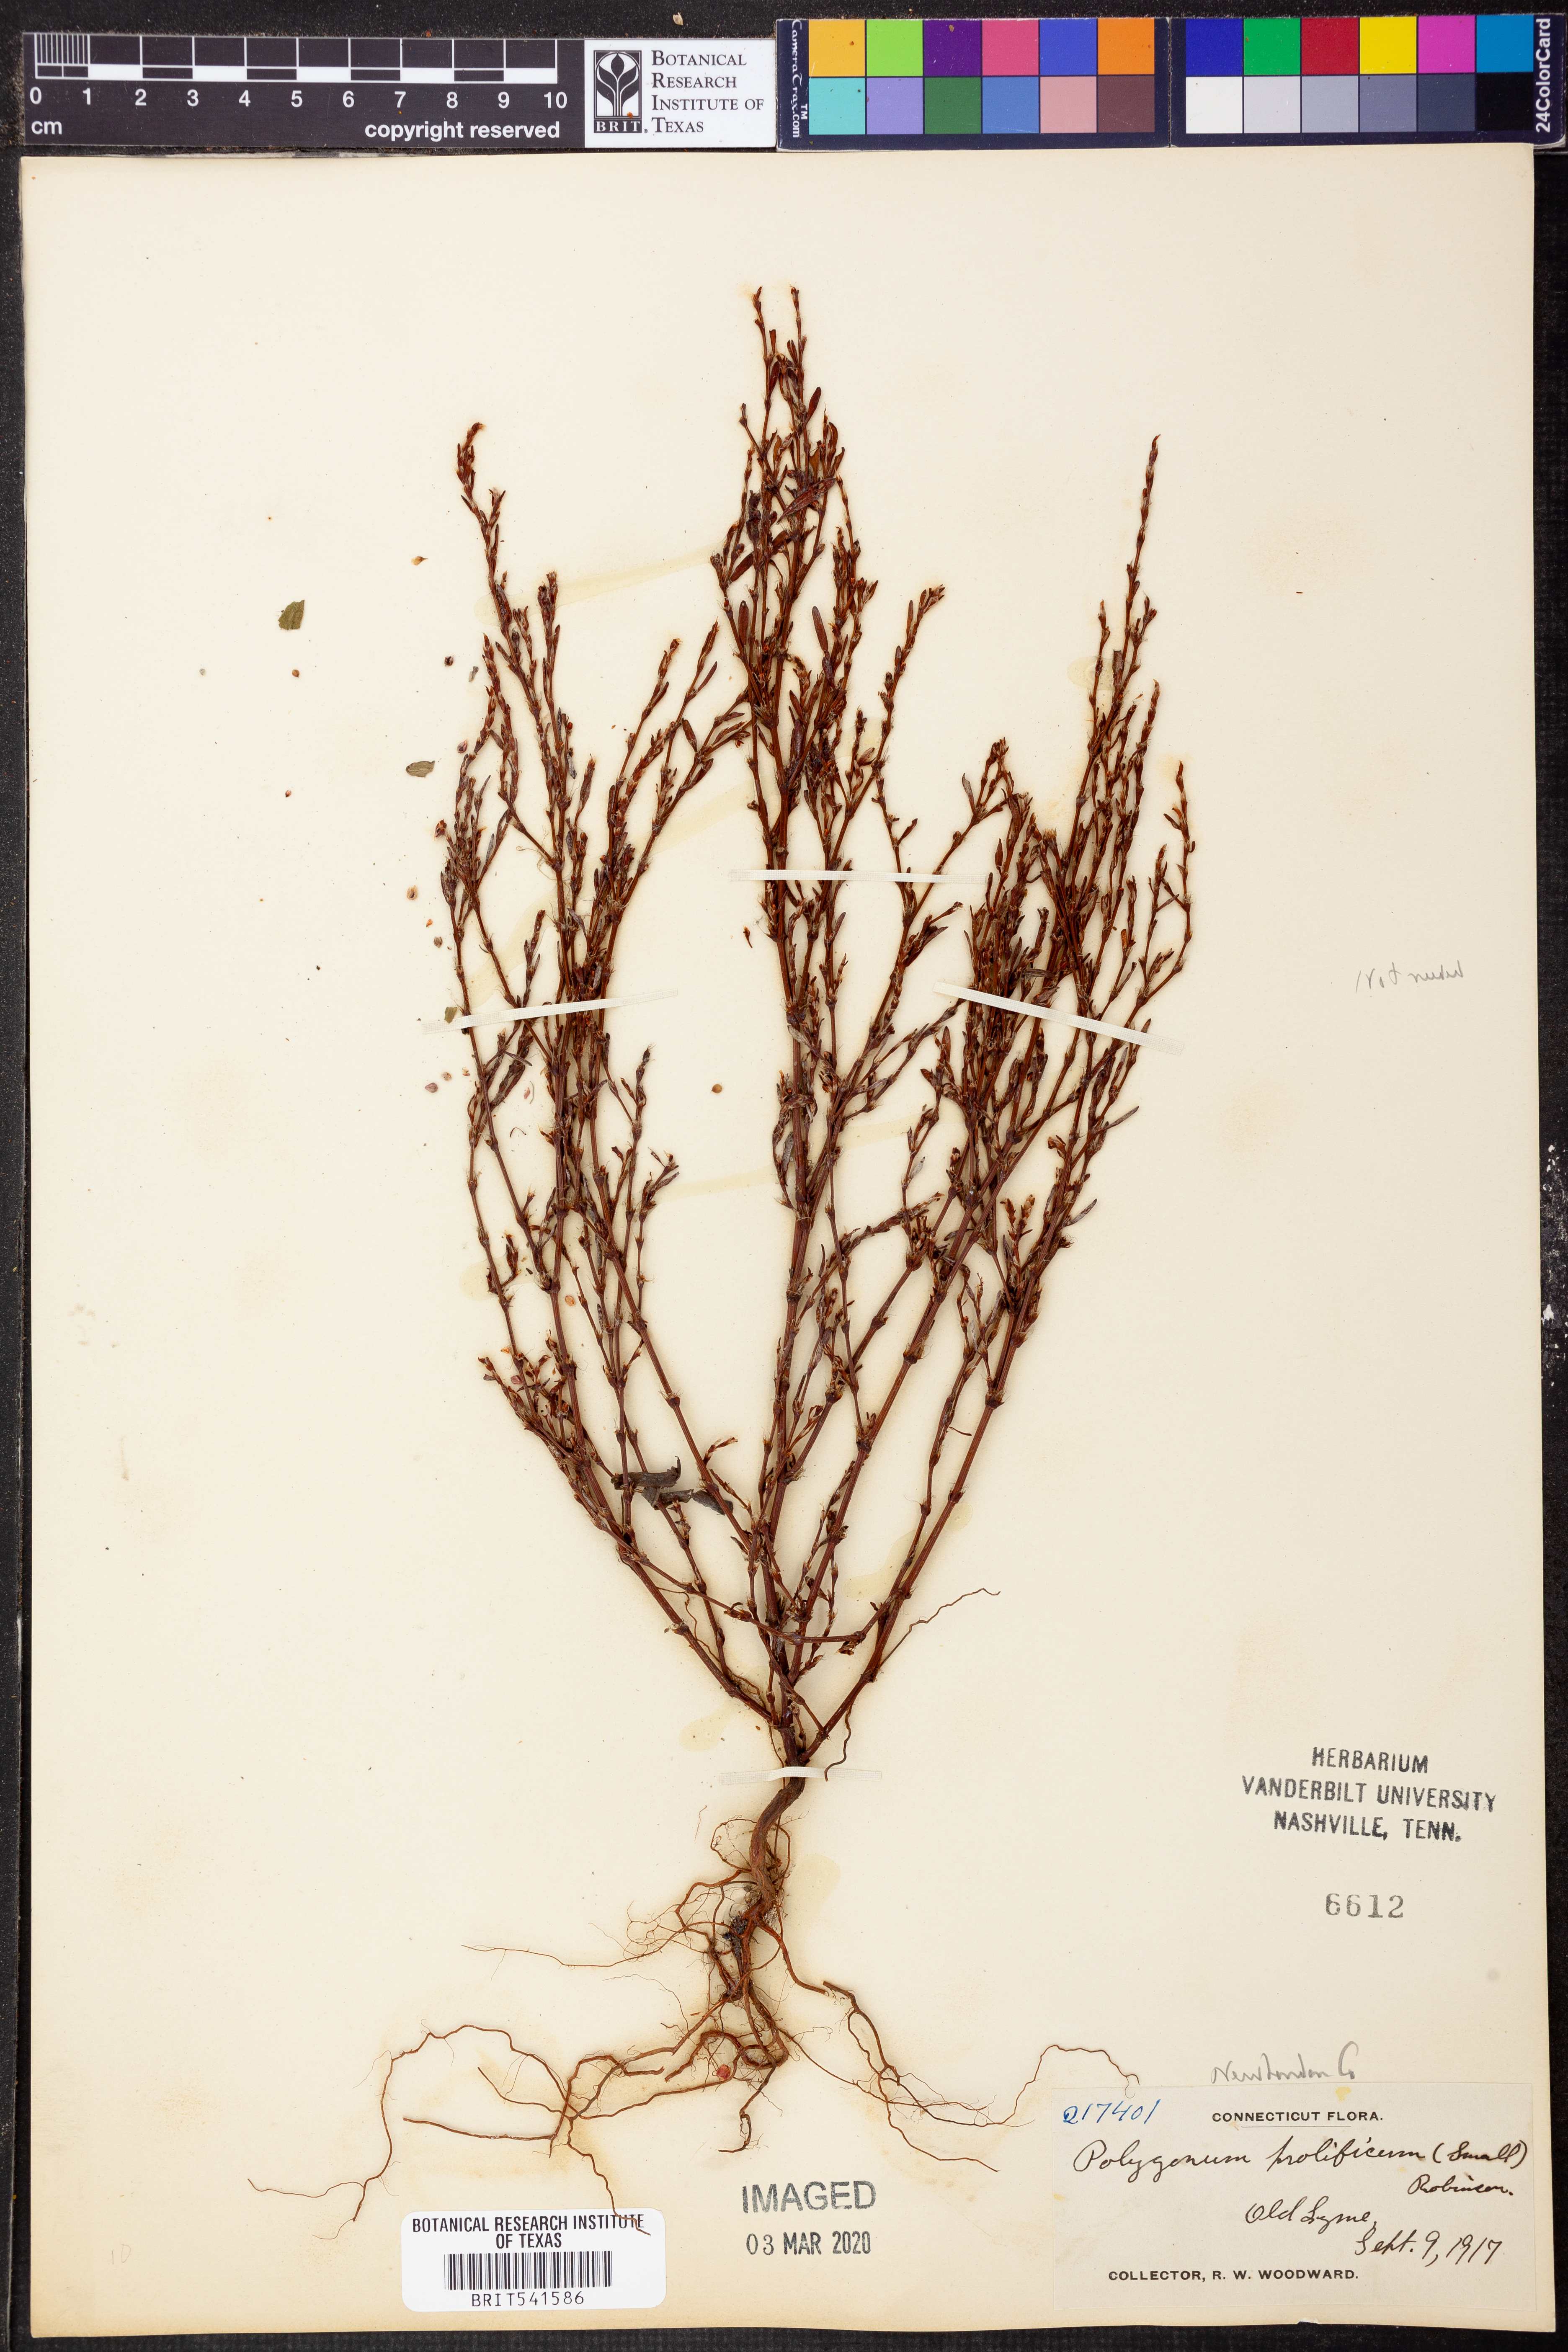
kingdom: Plantae
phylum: Tracheophyta
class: Magnoliopsida
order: Caryophyllales
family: Polygonaceae
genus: Polygonum
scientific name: Polygonum ramosissimum
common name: Bushy knotweed
